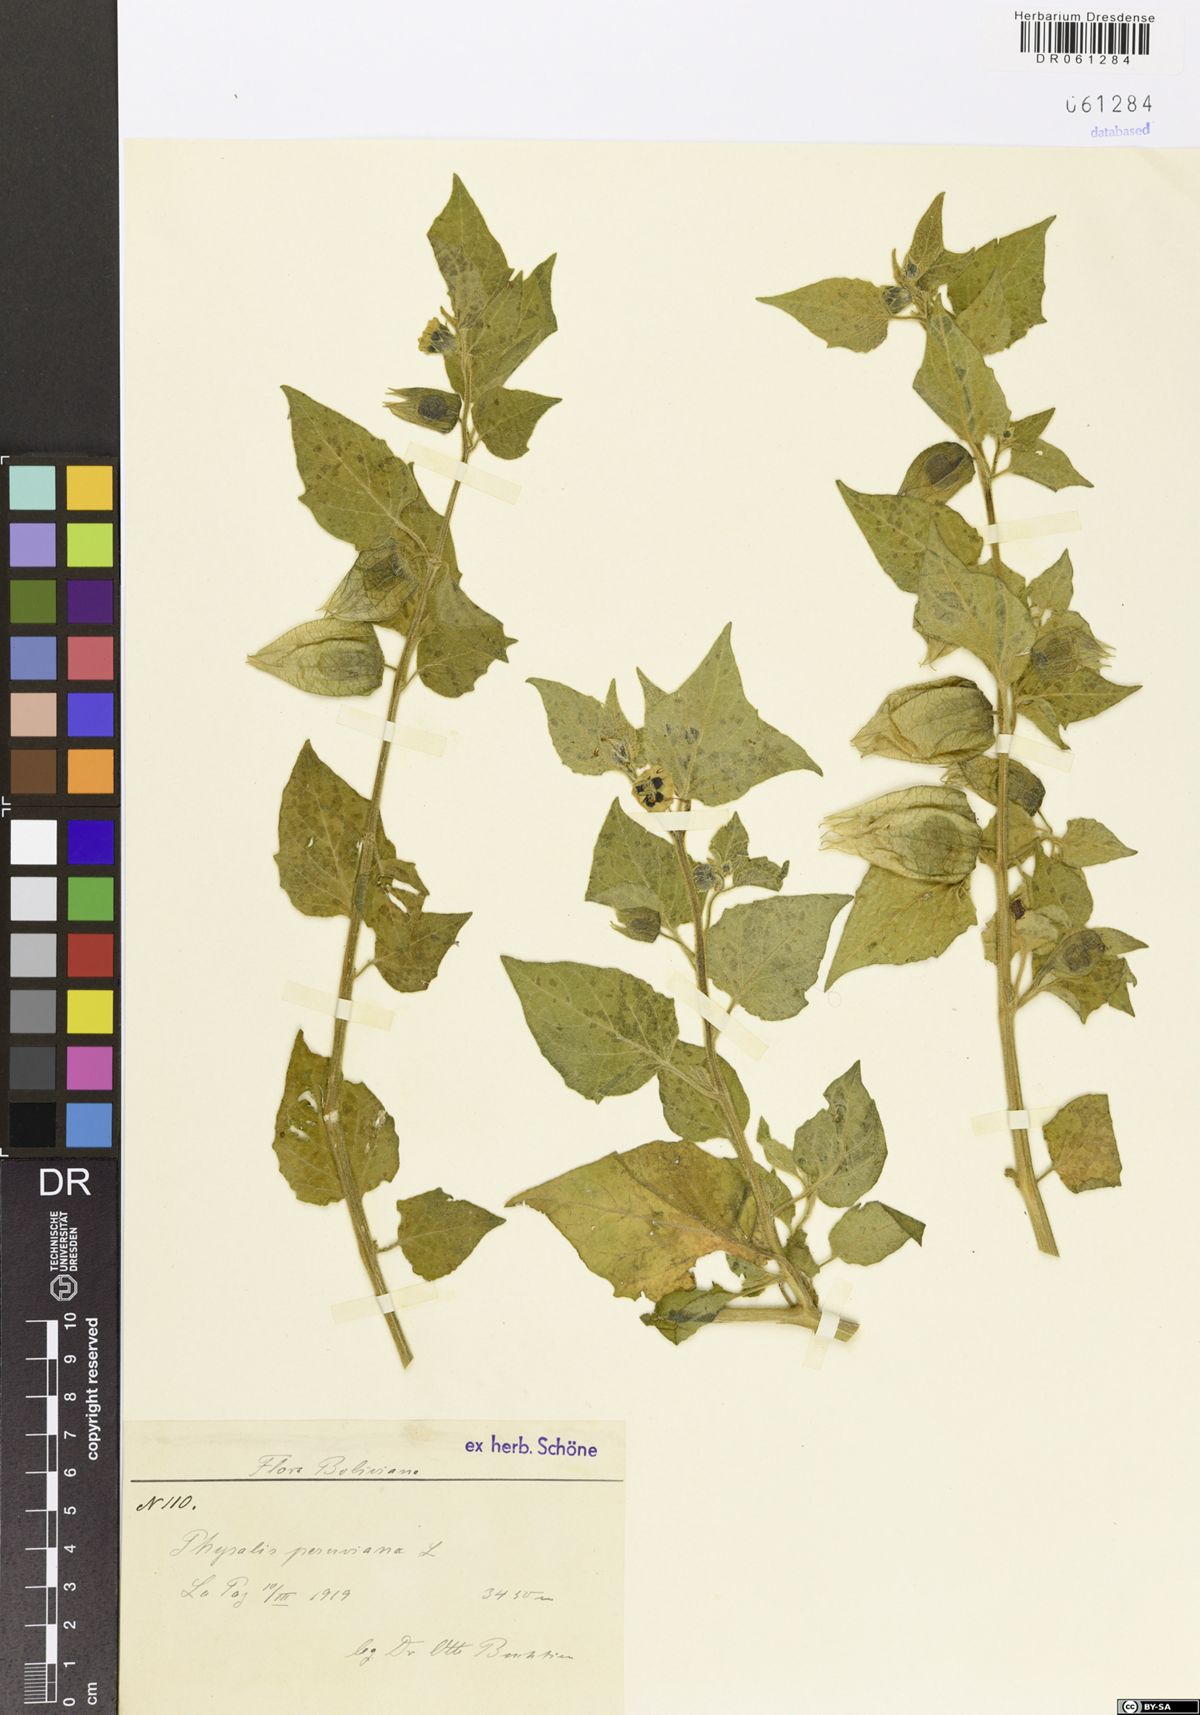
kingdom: Plantae
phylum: Tracheophyta
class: Magnoliopsida
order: Solanales
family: Solanaceae
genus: Physalis
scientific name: Physalis peruviana
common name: Cape-gooseberry
